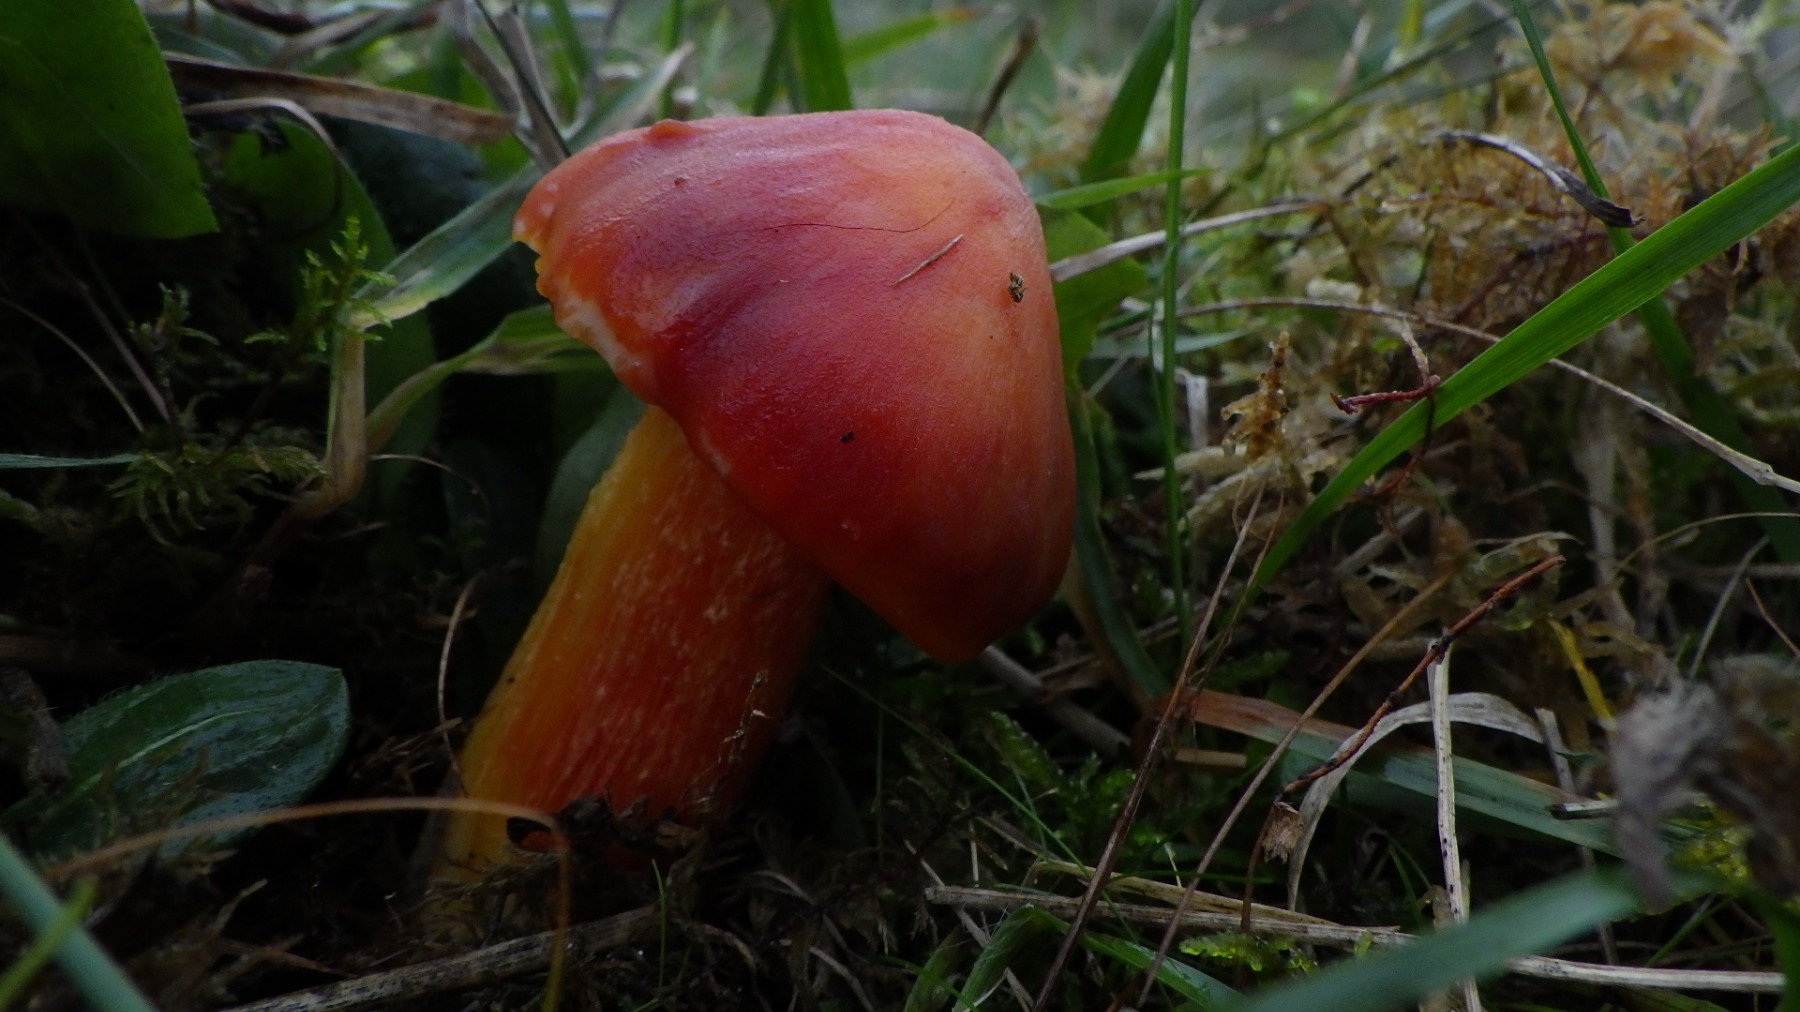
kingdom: Fungi
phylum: Basidiomycota
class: Agaricomycetes
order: Agaricales
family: Hygrophoraceae
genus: Hygrocybe
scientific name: Hygrocybe punicea
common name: skarlagen-vokshat
